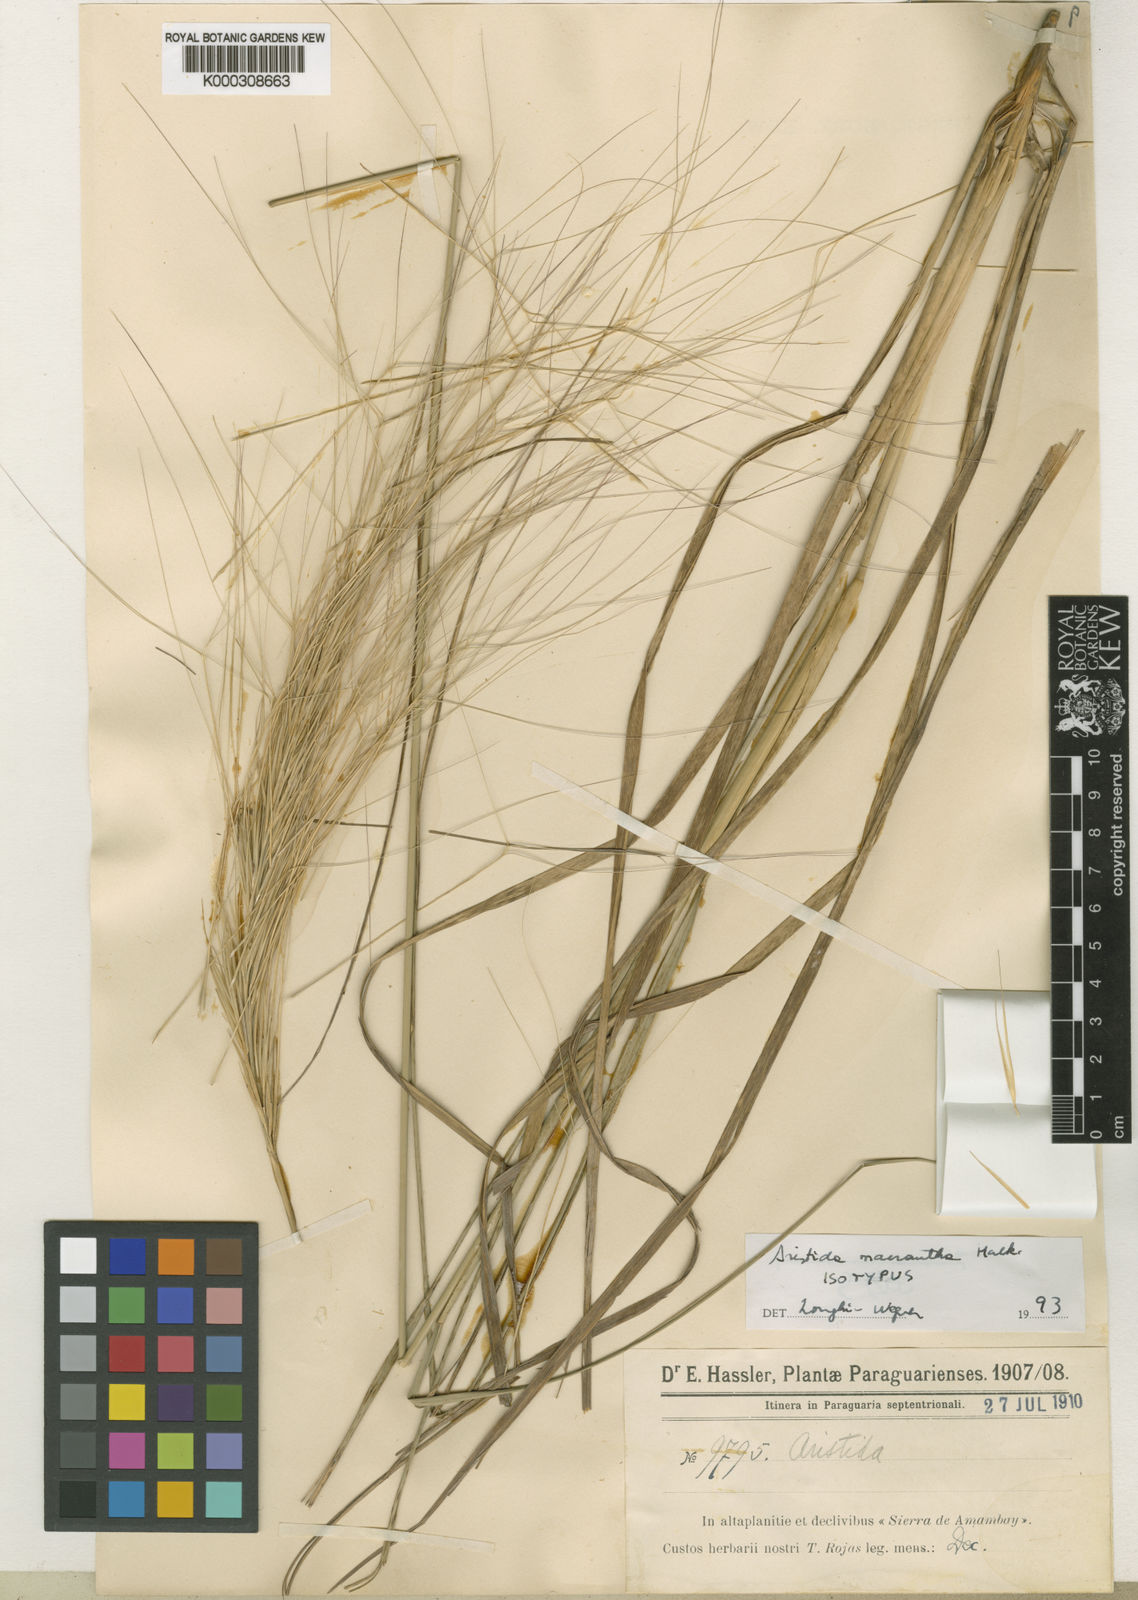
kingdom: Plantae
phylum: Tracheophyta
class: Liliopsida
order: Poales
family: Poaceae
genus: Aristida
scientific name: Aristida macrantha
